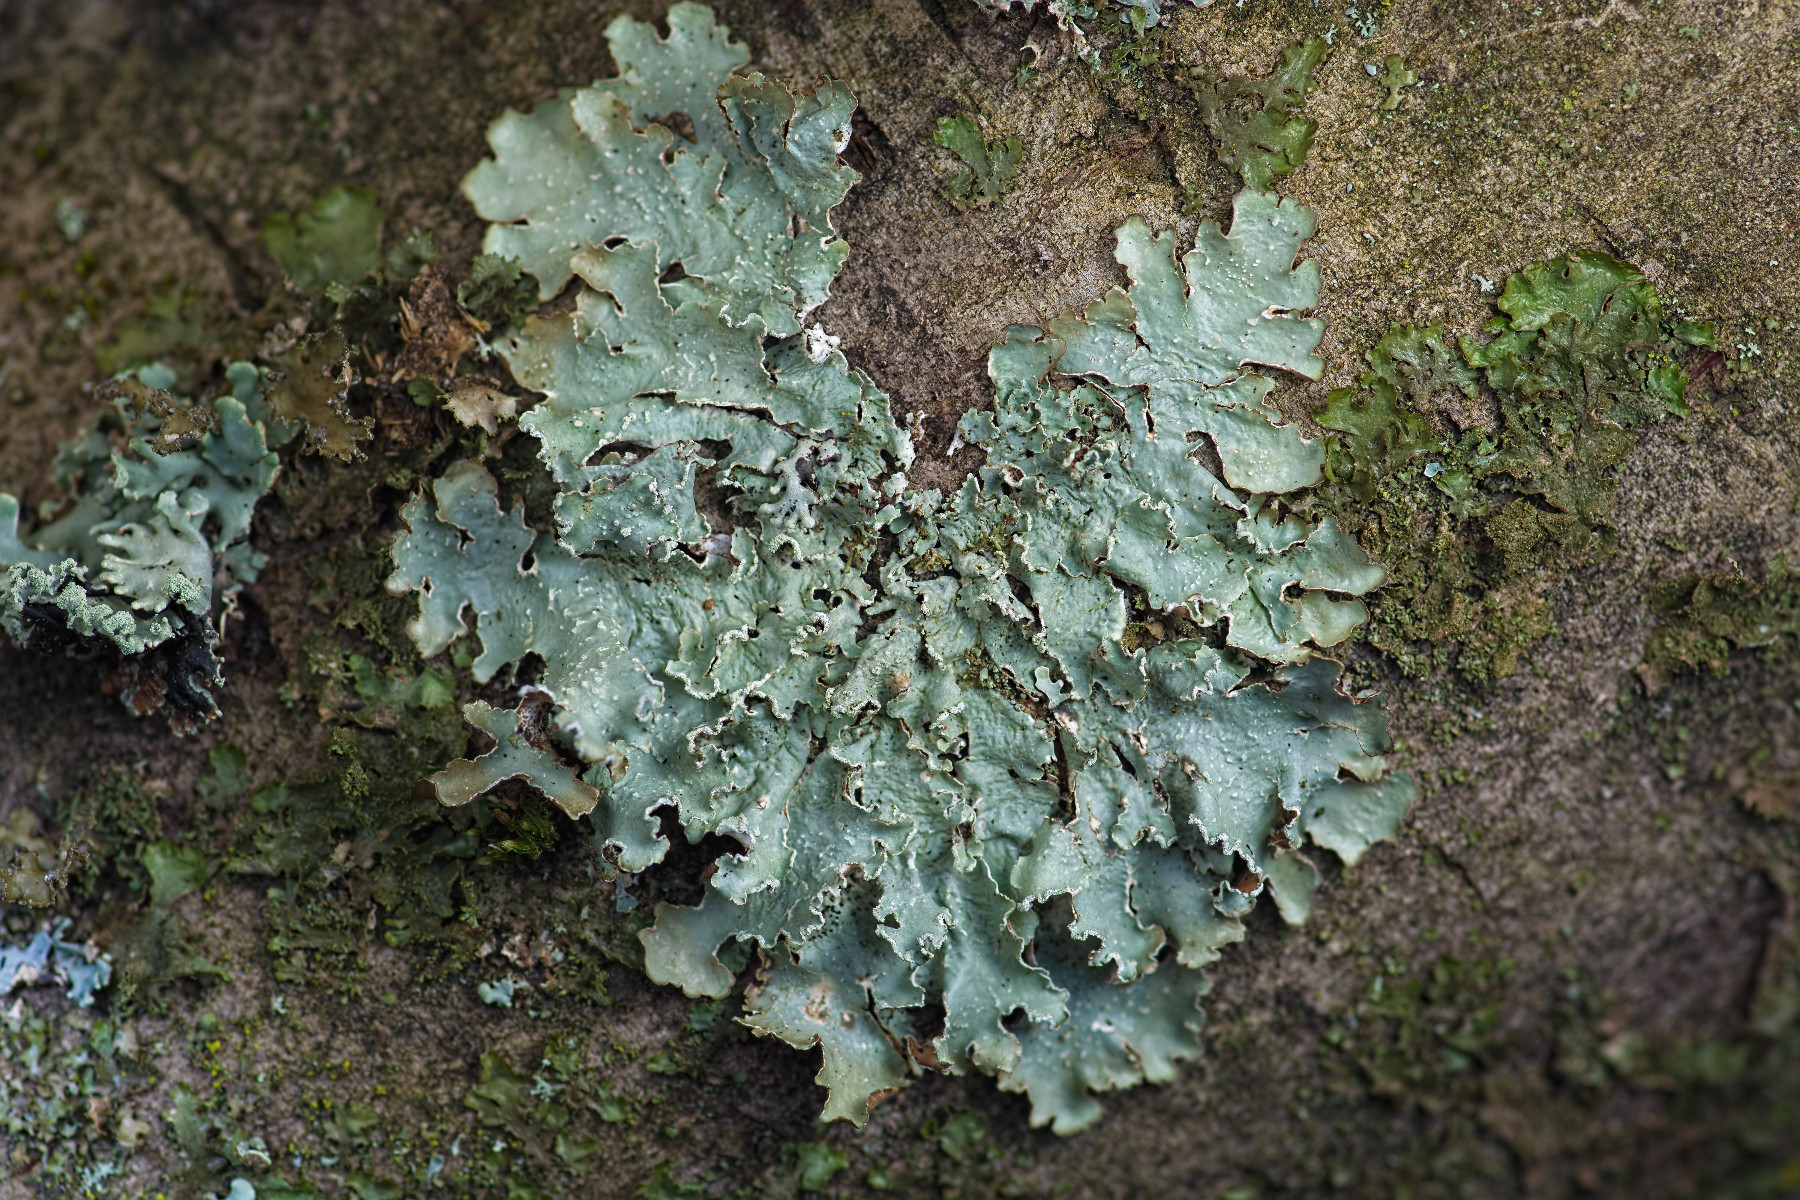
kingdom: Fungi
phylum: Ascomycota
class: Lecanoromycetes
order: Lecanorales
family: Parmeliaceae
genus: Punctelia
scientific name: Punctelia jeckeri
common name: randstøvet skållav
